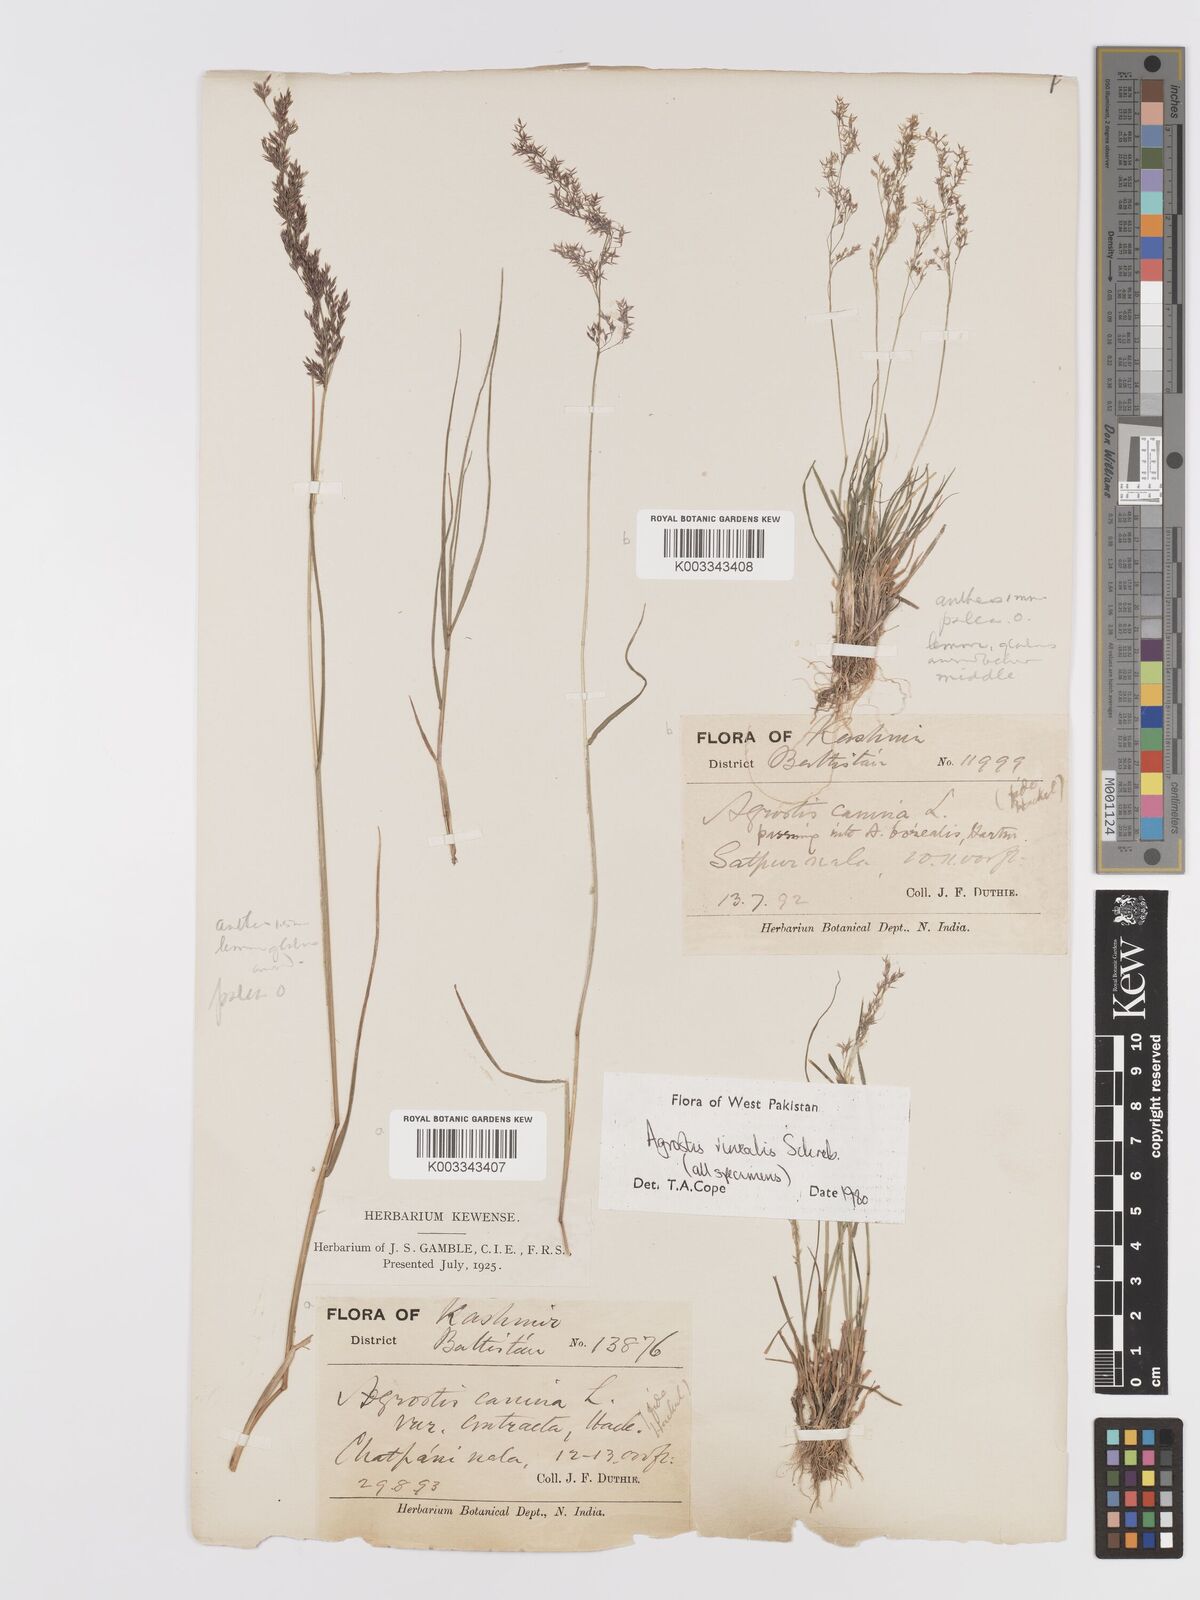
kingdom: Plantae
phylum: Tracheophyta
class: Liliopsida
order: Poales
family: Poaceae
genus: Agrostis
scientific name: Agrostis vinealis
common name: Brown bent
